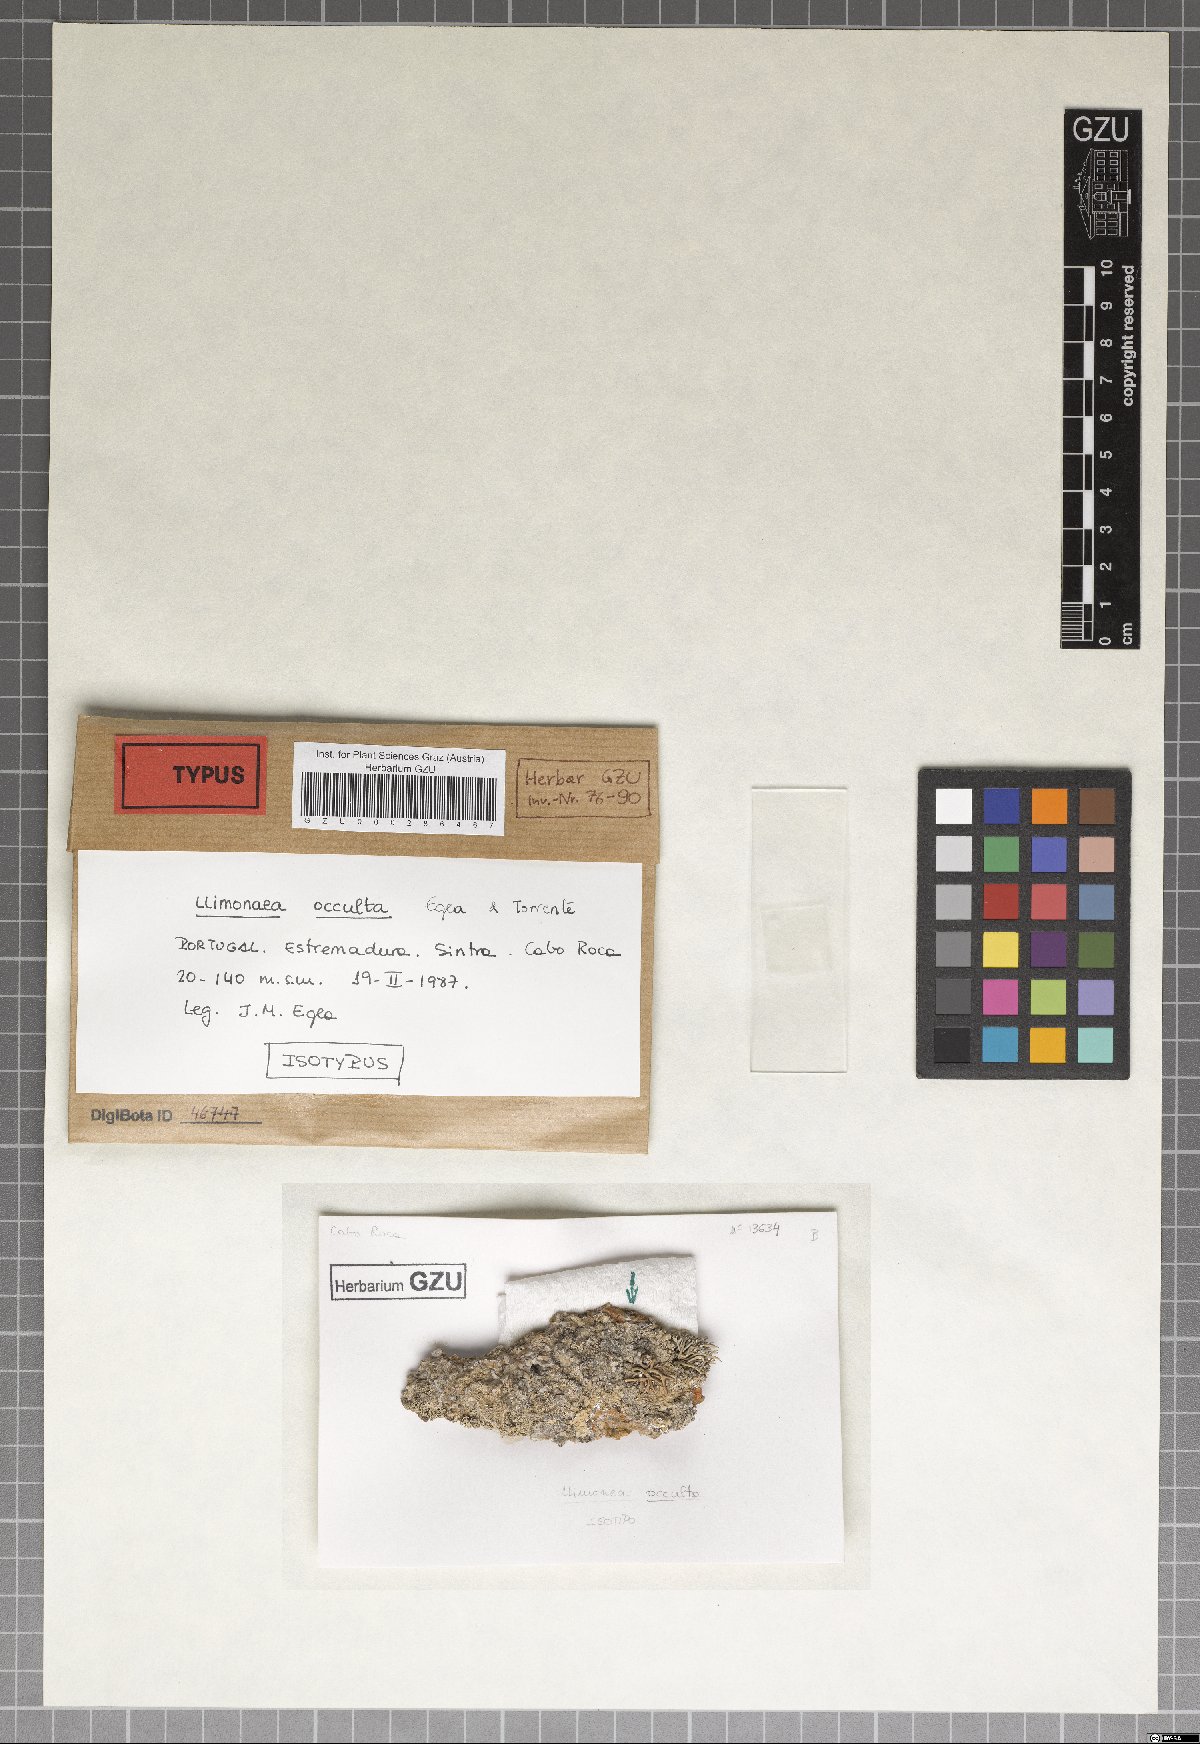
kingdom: Fungi
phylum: Ascomycota
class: Arthoniomycetes
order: Arthoniales
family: Opegraphaceae
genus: Llimonaea
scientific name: Llimonaea occulta
